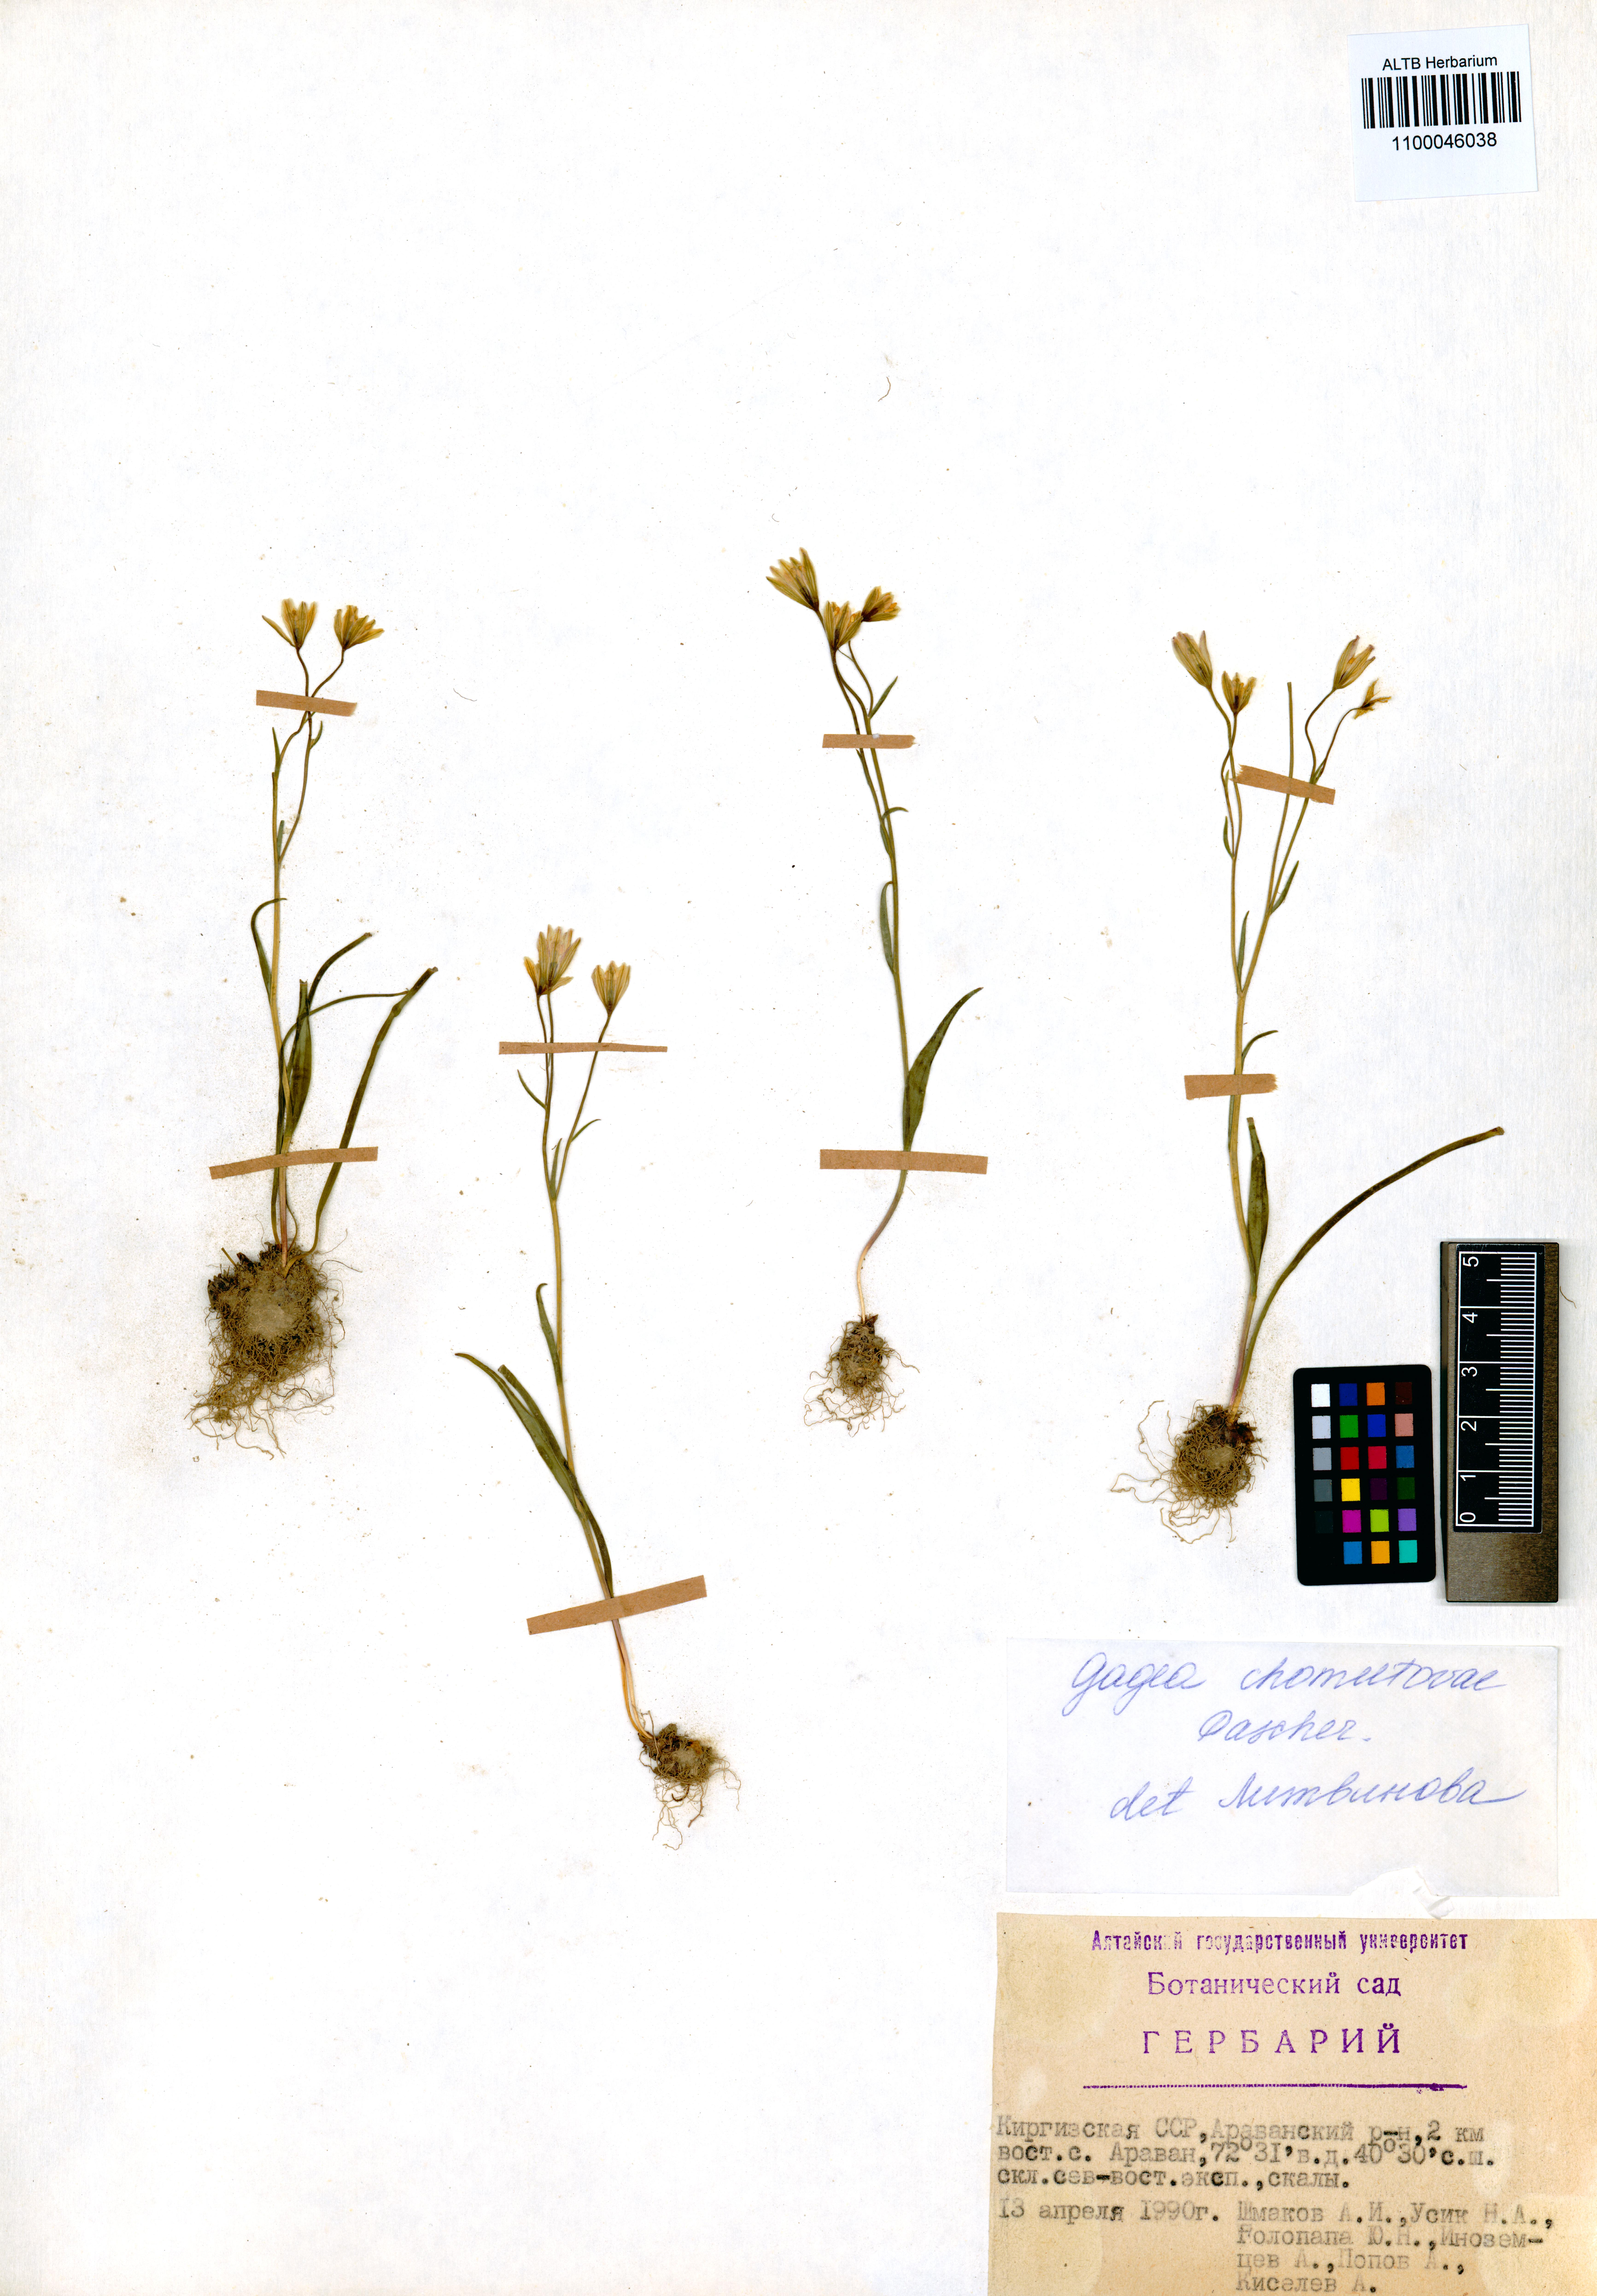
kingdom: Plantae
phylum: Tracheophyta
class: Liliopsida
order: Liliales
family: Liliaceae
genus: Gagea
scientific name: Gagea chomutowae
